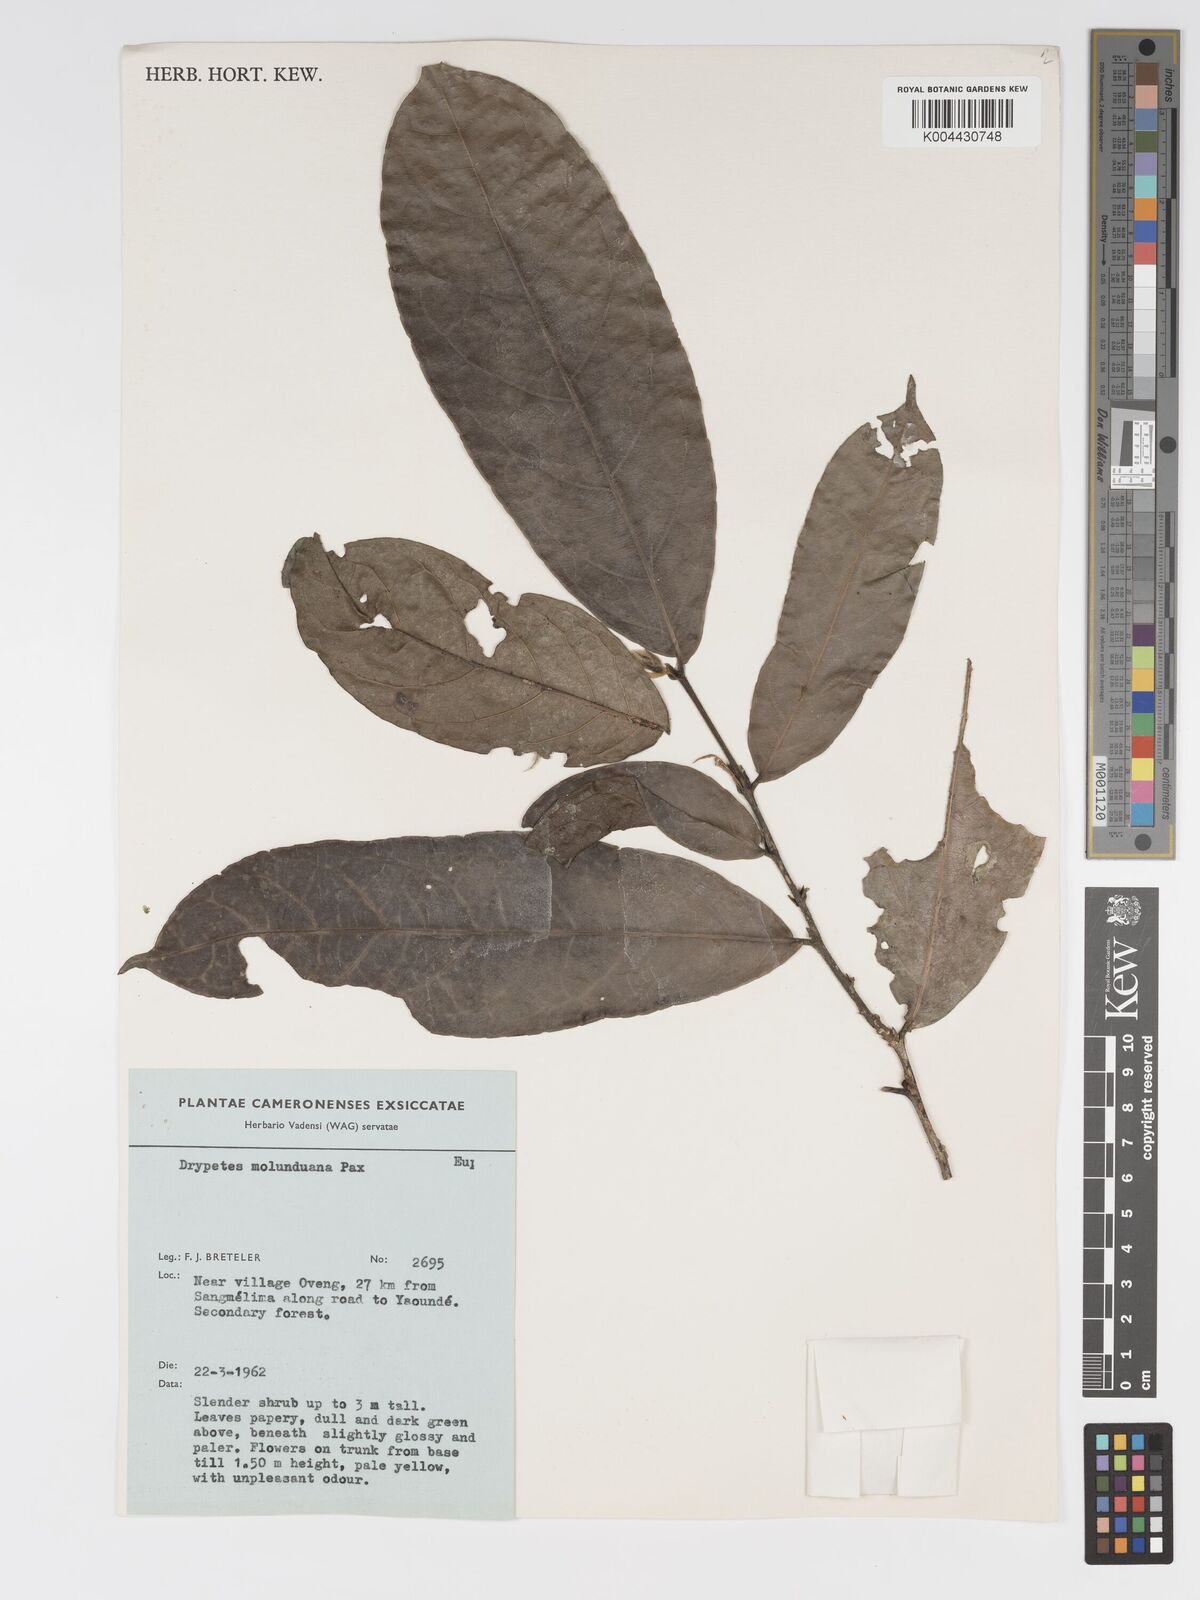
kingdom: Plantae
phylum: Tracheophyta
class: Magnoliopsida
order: Malpighiales
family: Putranjivaceae
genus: Drypetes
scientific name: Drypetes molunduana
